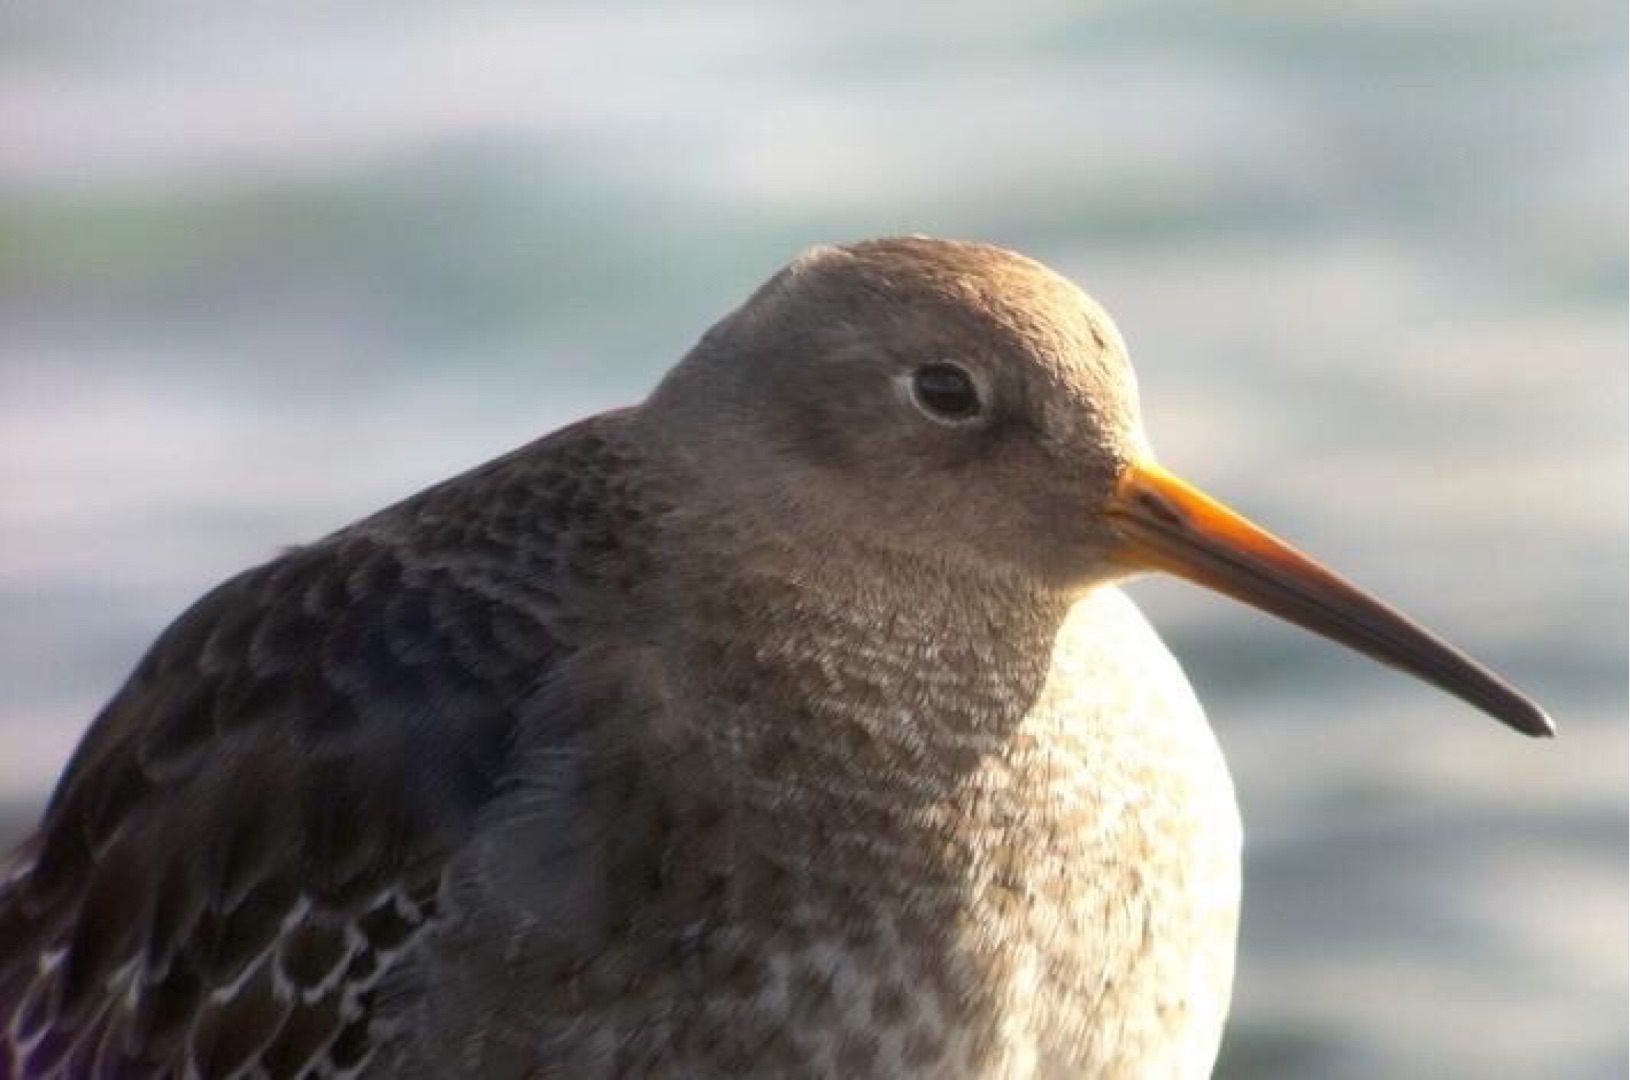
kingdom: Animalia
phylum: Chordata
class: Aves
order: Charadriiformes
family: Scolopacidae
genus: Calidris
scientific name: Calidris maritima
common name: Sortgrå ryle
